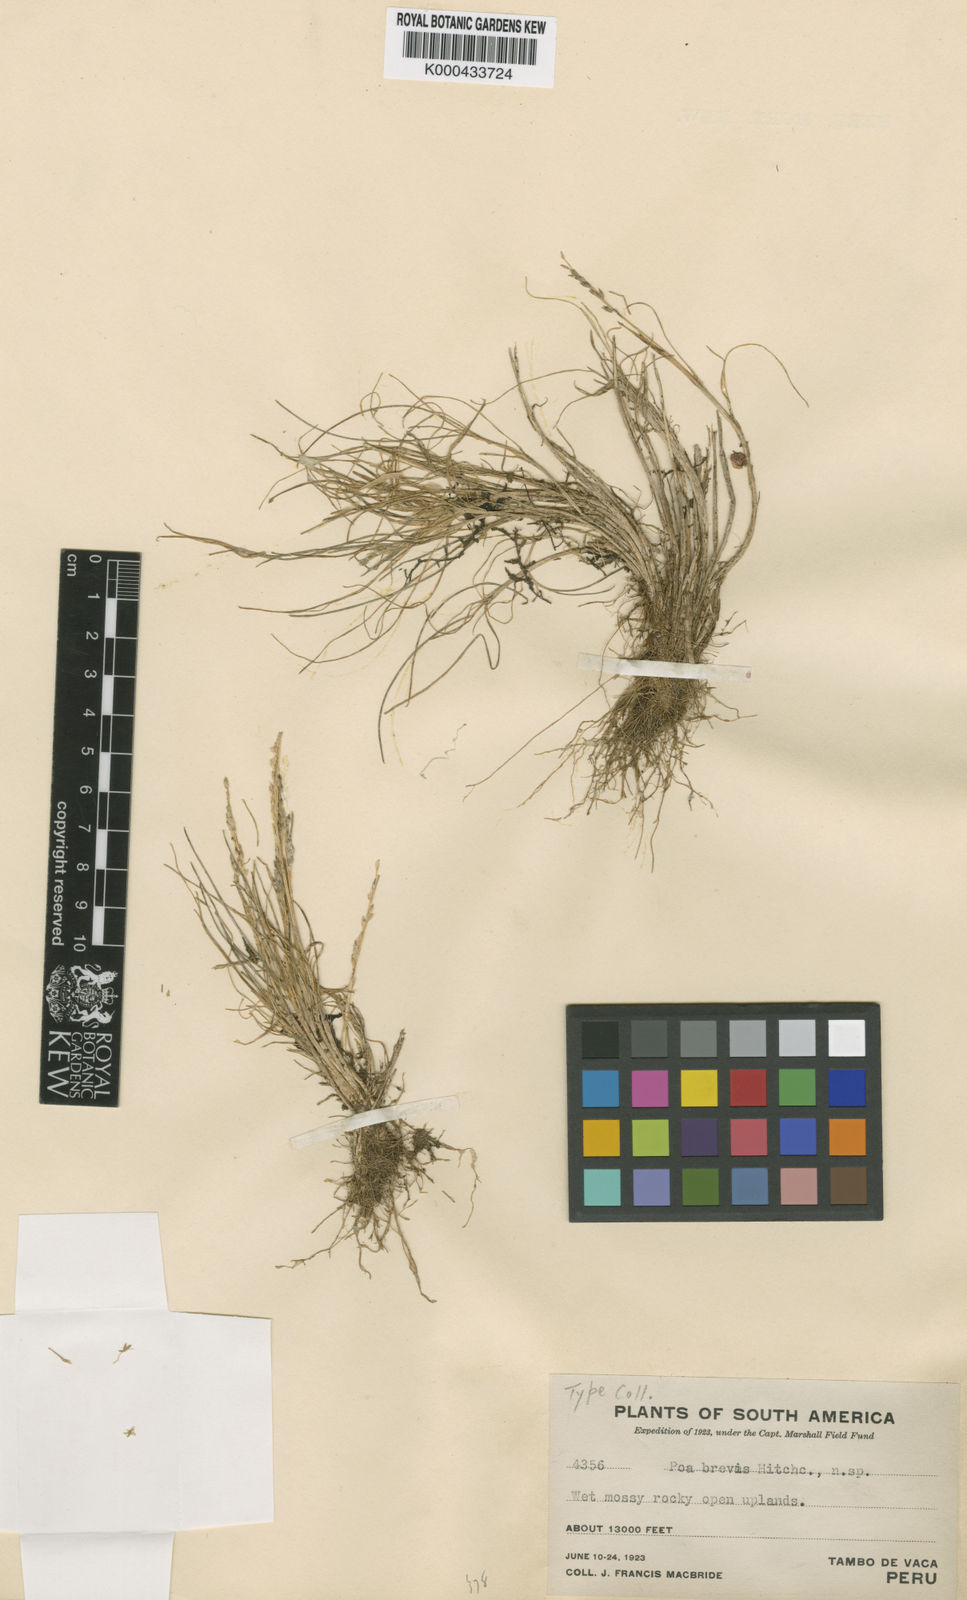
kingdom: Plantae
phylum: Tracheophyta
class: Liliopsida
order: Poales
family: Poaceae
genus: Poa
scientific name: Poa brevis
